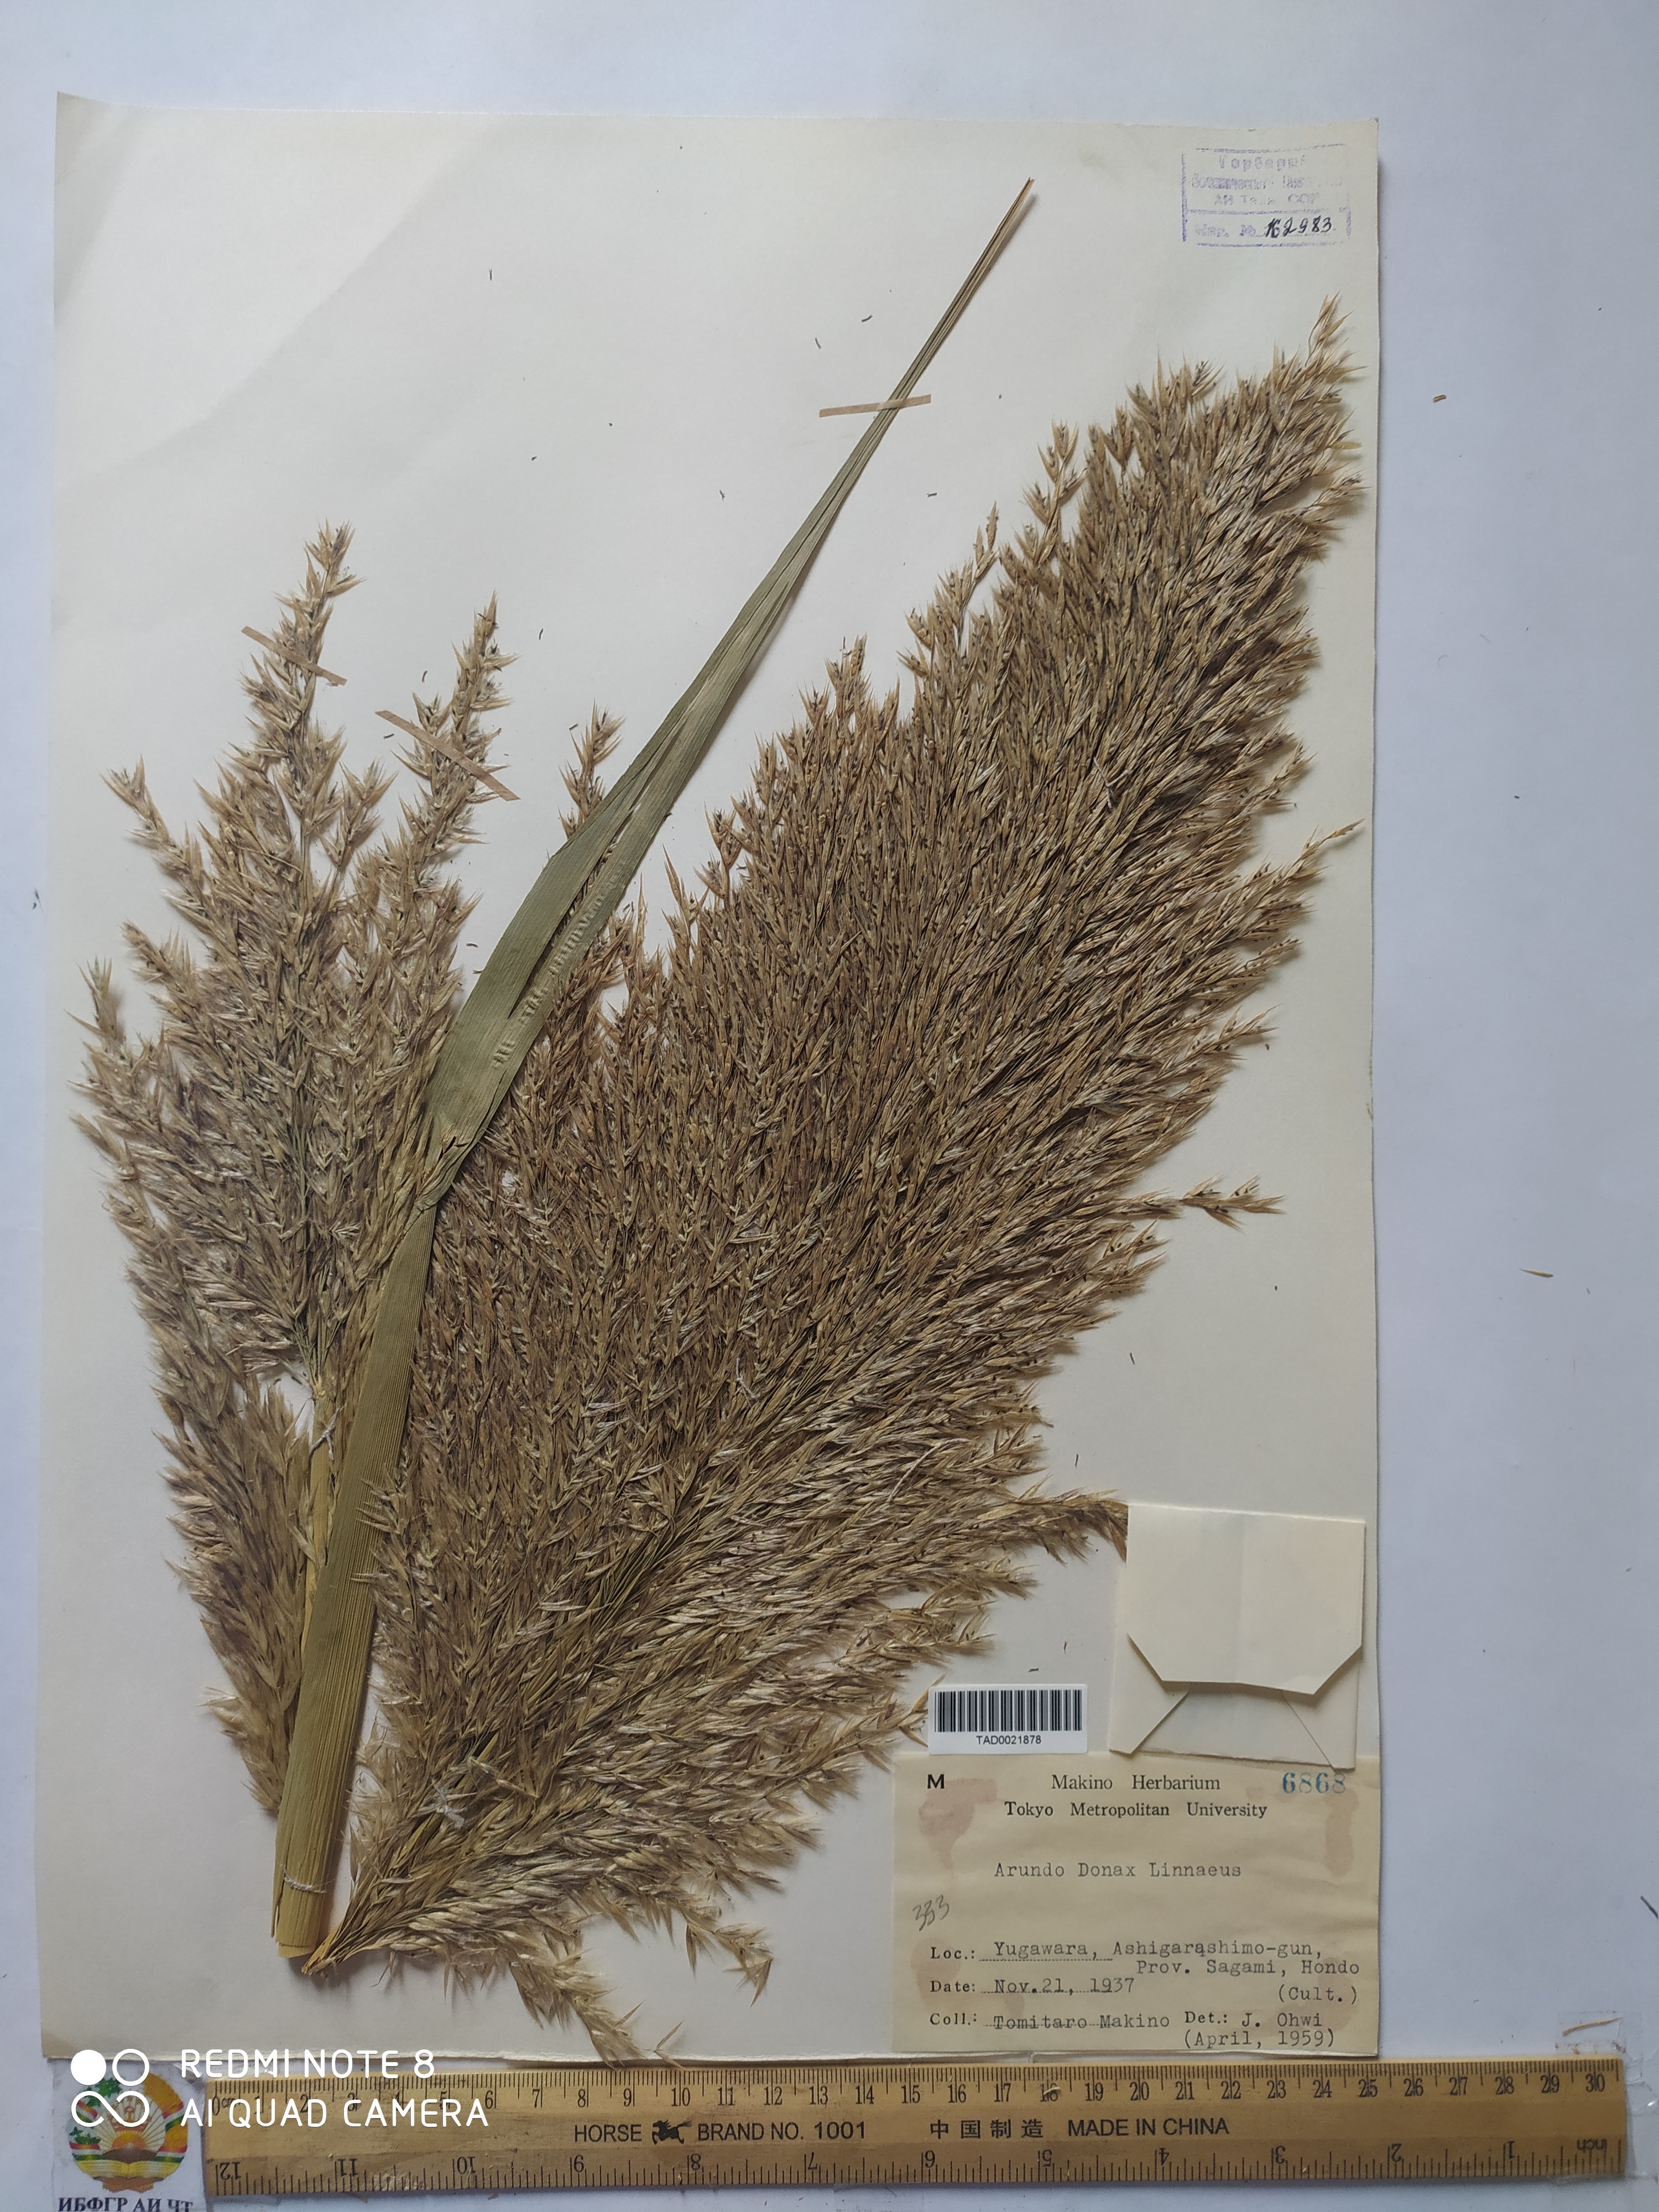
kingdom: Plantae
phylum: Tracheophyta
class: Liliopsida
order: Poales
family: Poaceae
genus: Arundo
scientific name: Arundo donax
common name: Giant reed
